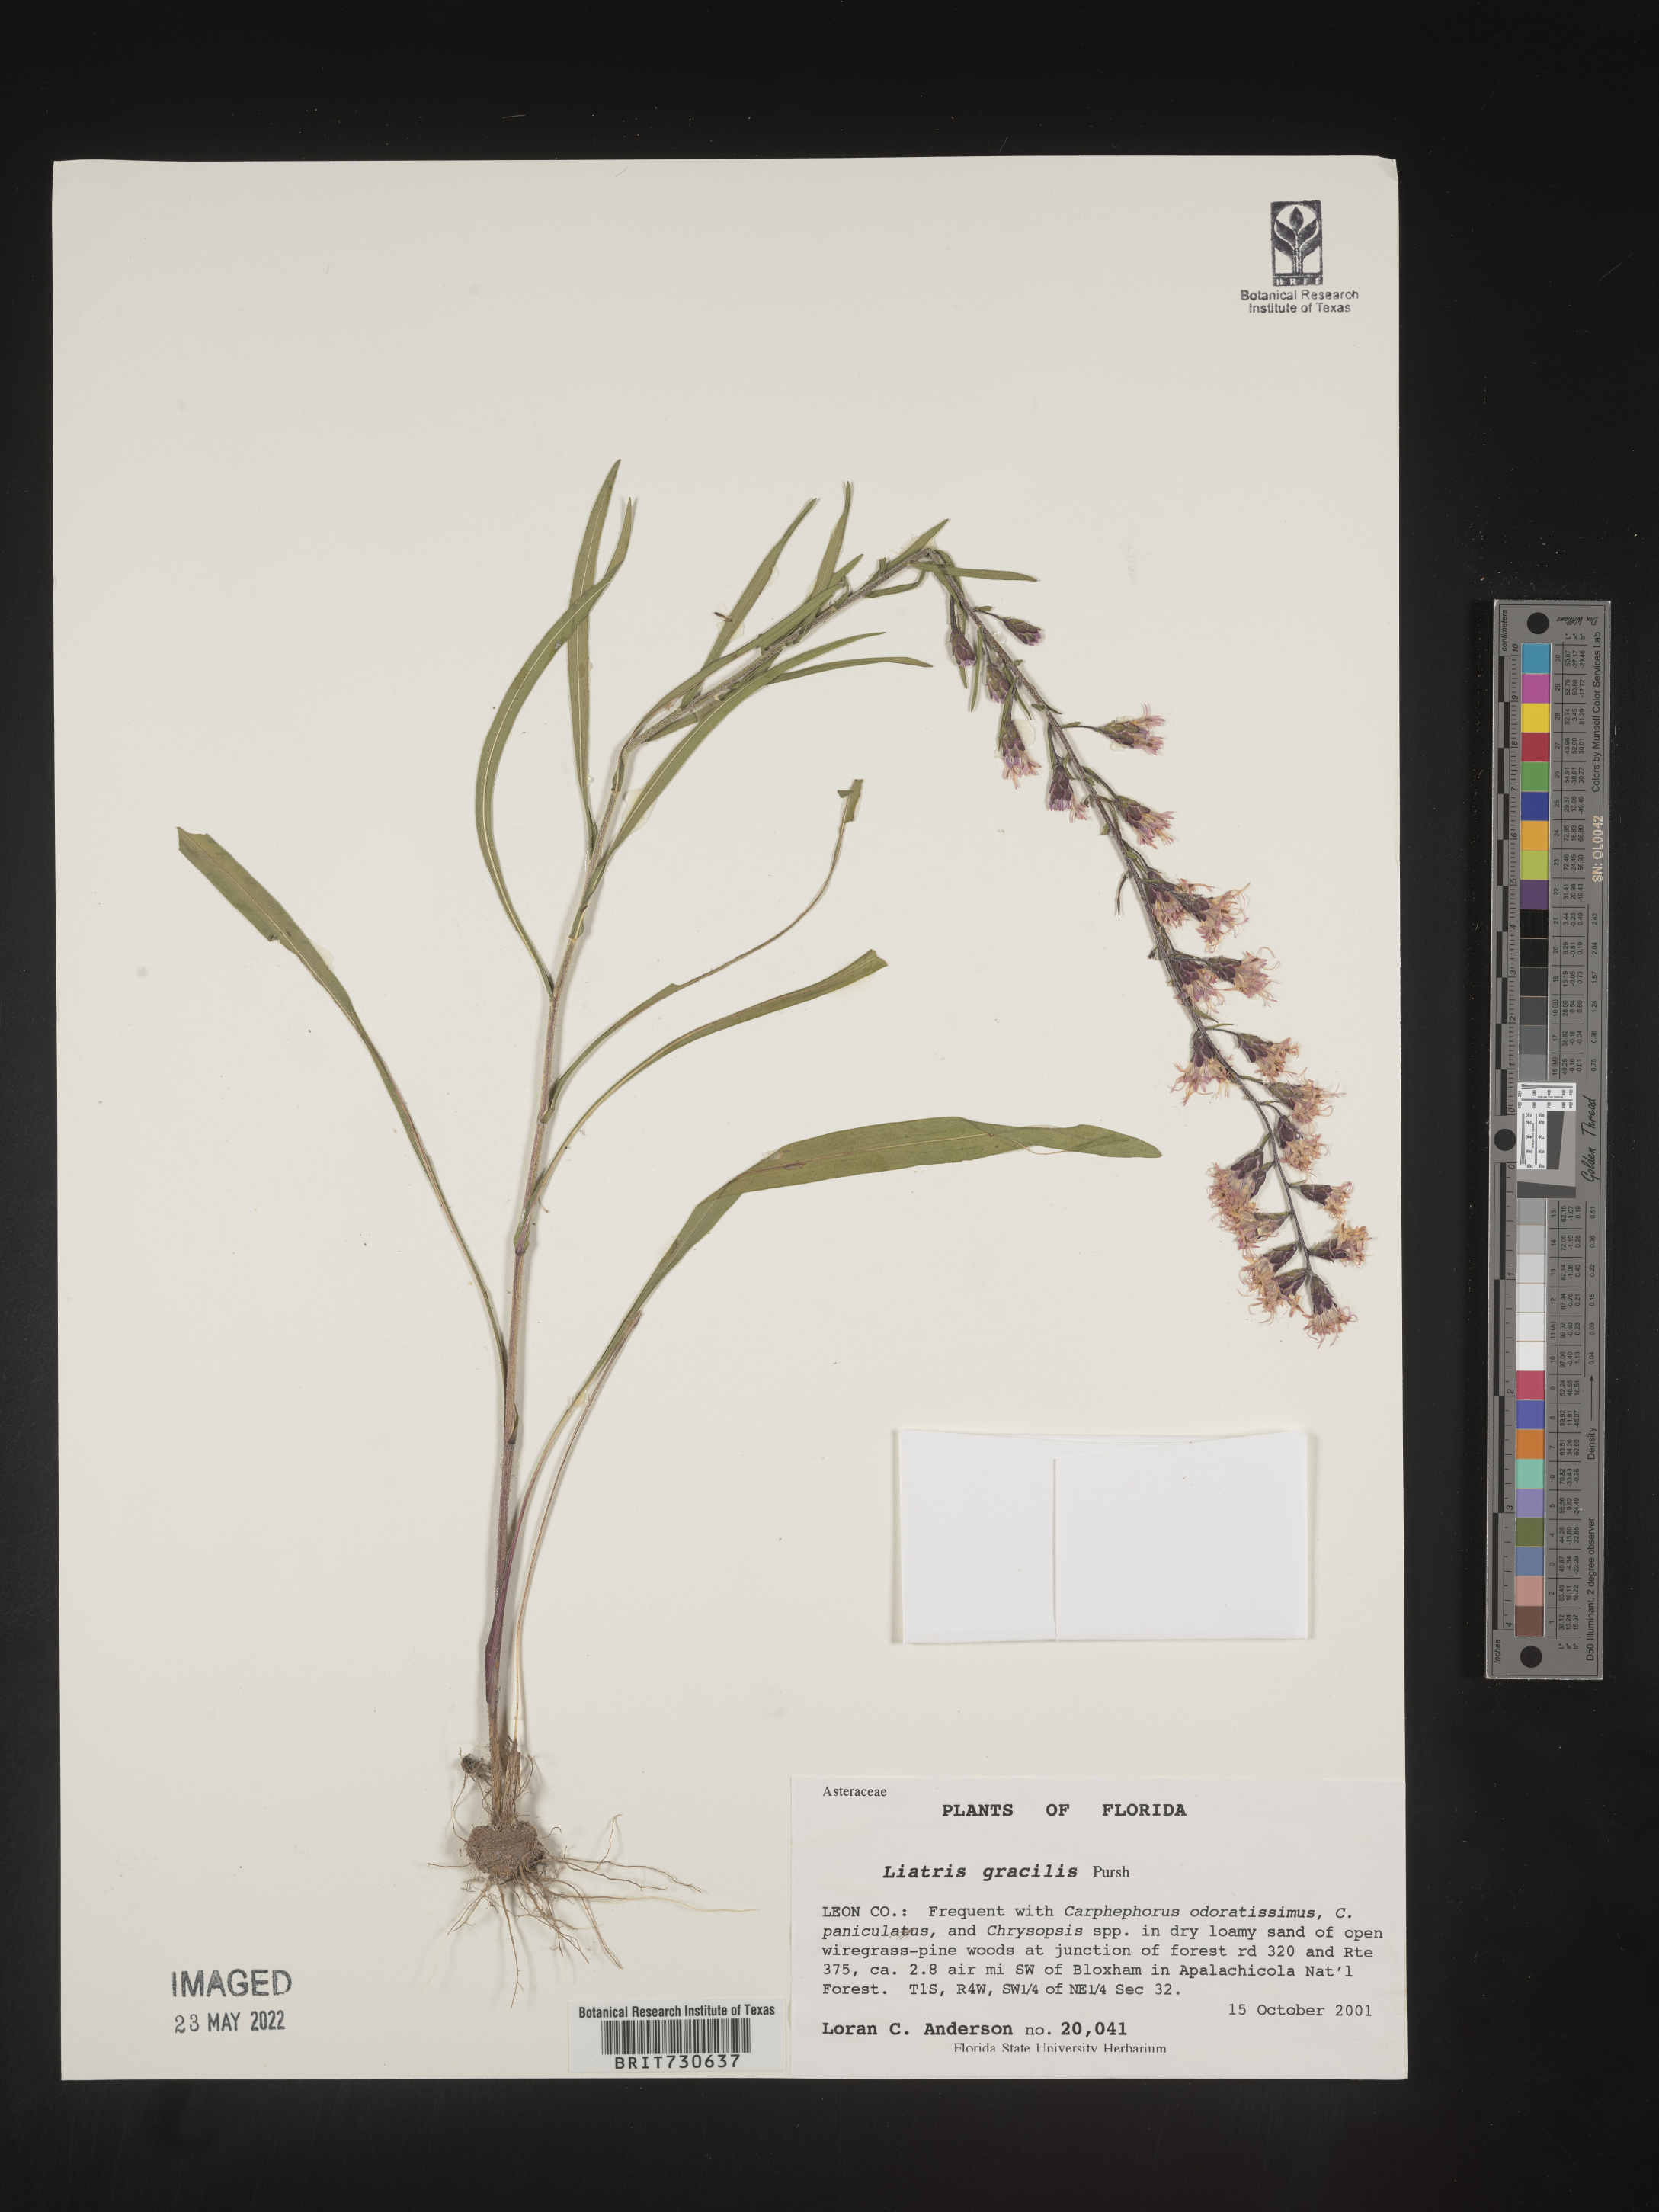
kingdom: Plantae
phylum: Tracheophyta
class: Magnoliopsida
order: Asterales
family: Asteraceae
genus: Liatris
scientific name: Liatris gracilis
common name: Slender gayfeather
